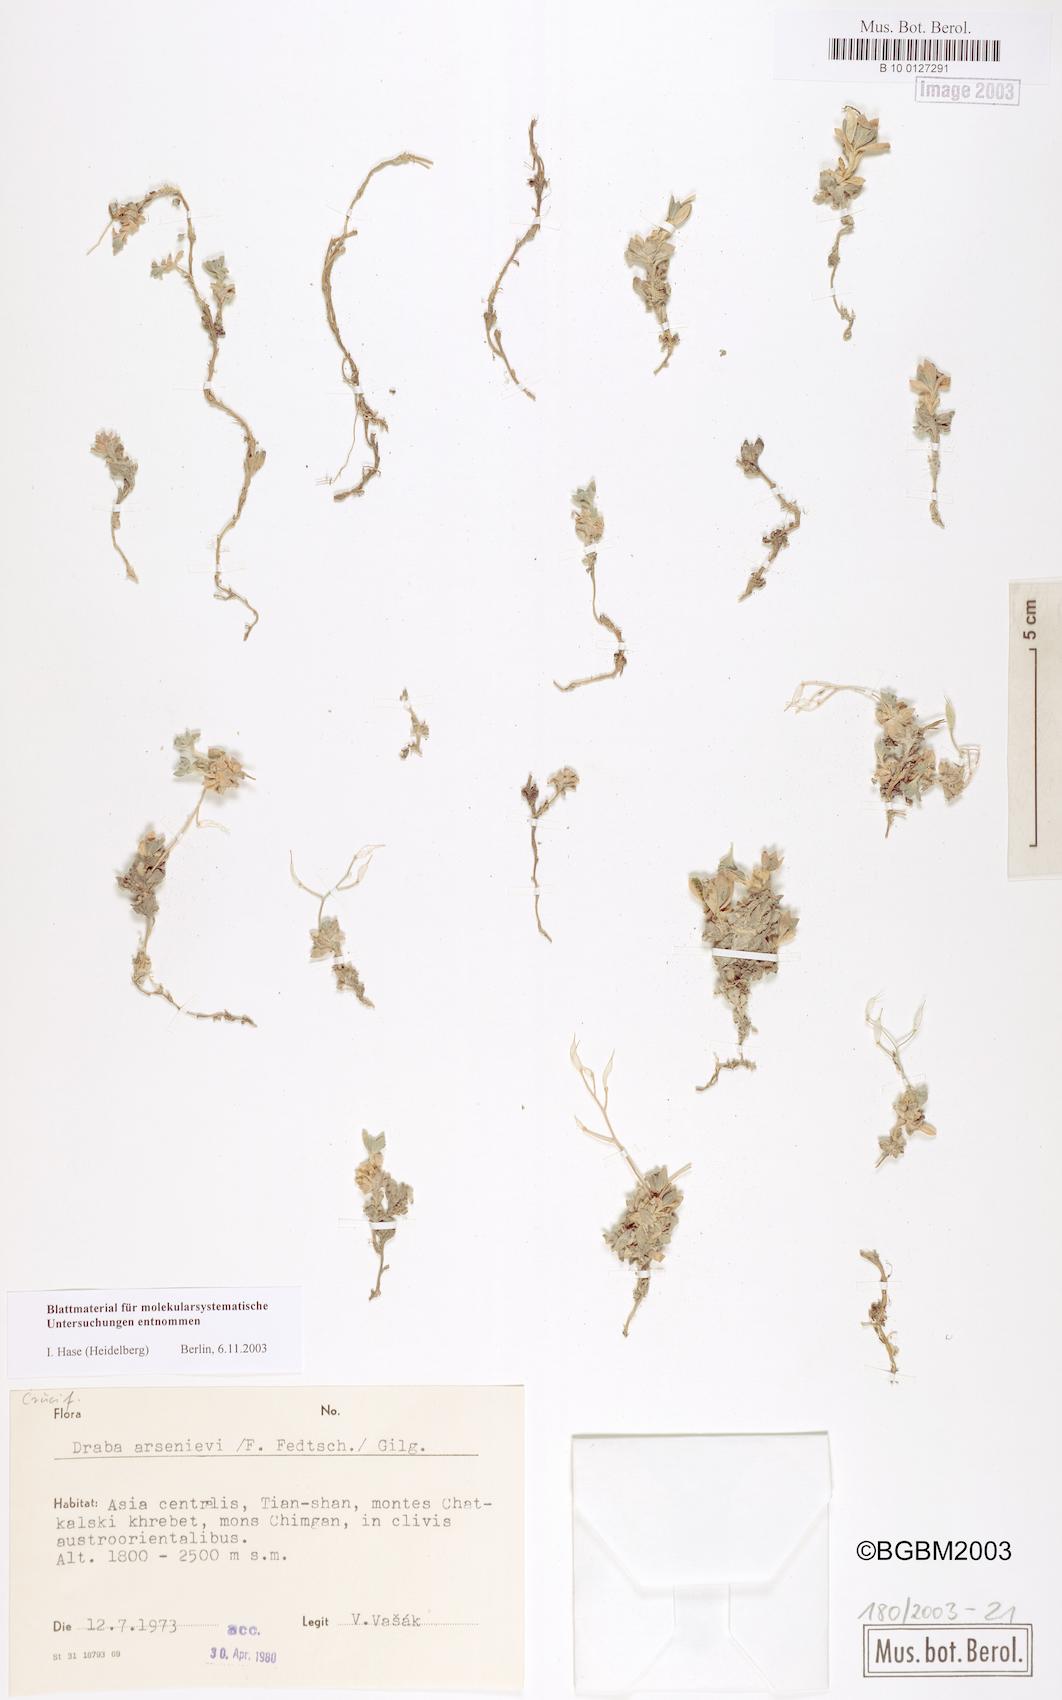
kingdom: Plantae
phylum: Tracheophyta
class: Magnoliopsida
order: Brassicales
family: Brassicaceae
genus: Draba
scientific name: Draba arseniewi
